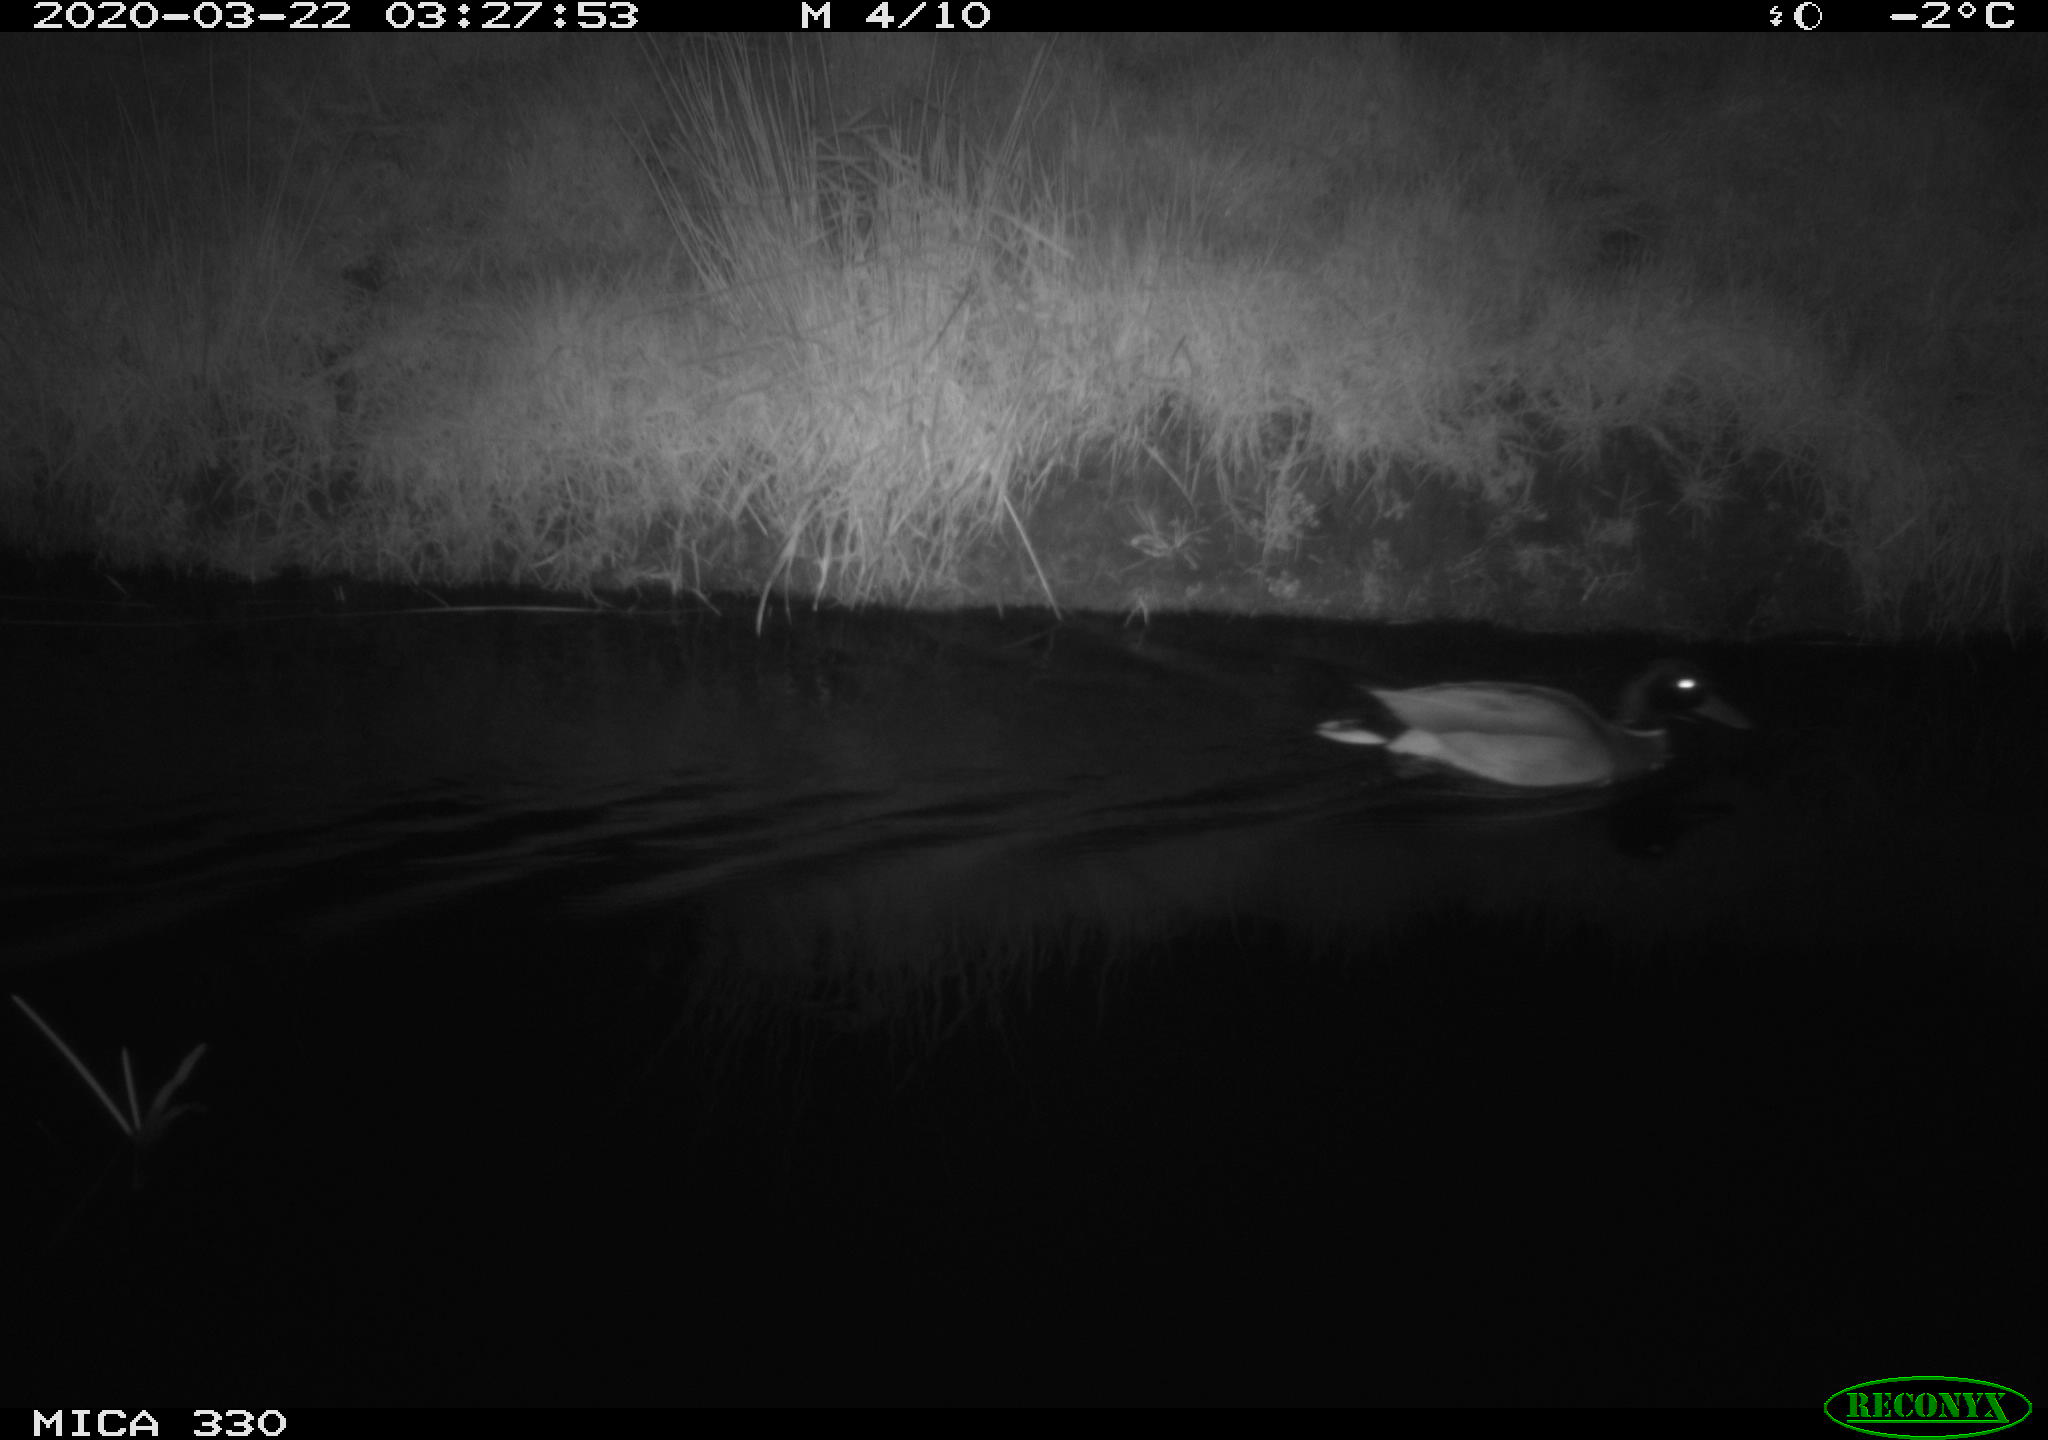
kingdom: Animalia
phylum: Chordata
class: Aves
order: Anseriformes
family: Anatidae
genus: Anas
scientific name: Anas platyrhynchos
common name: Mallard
